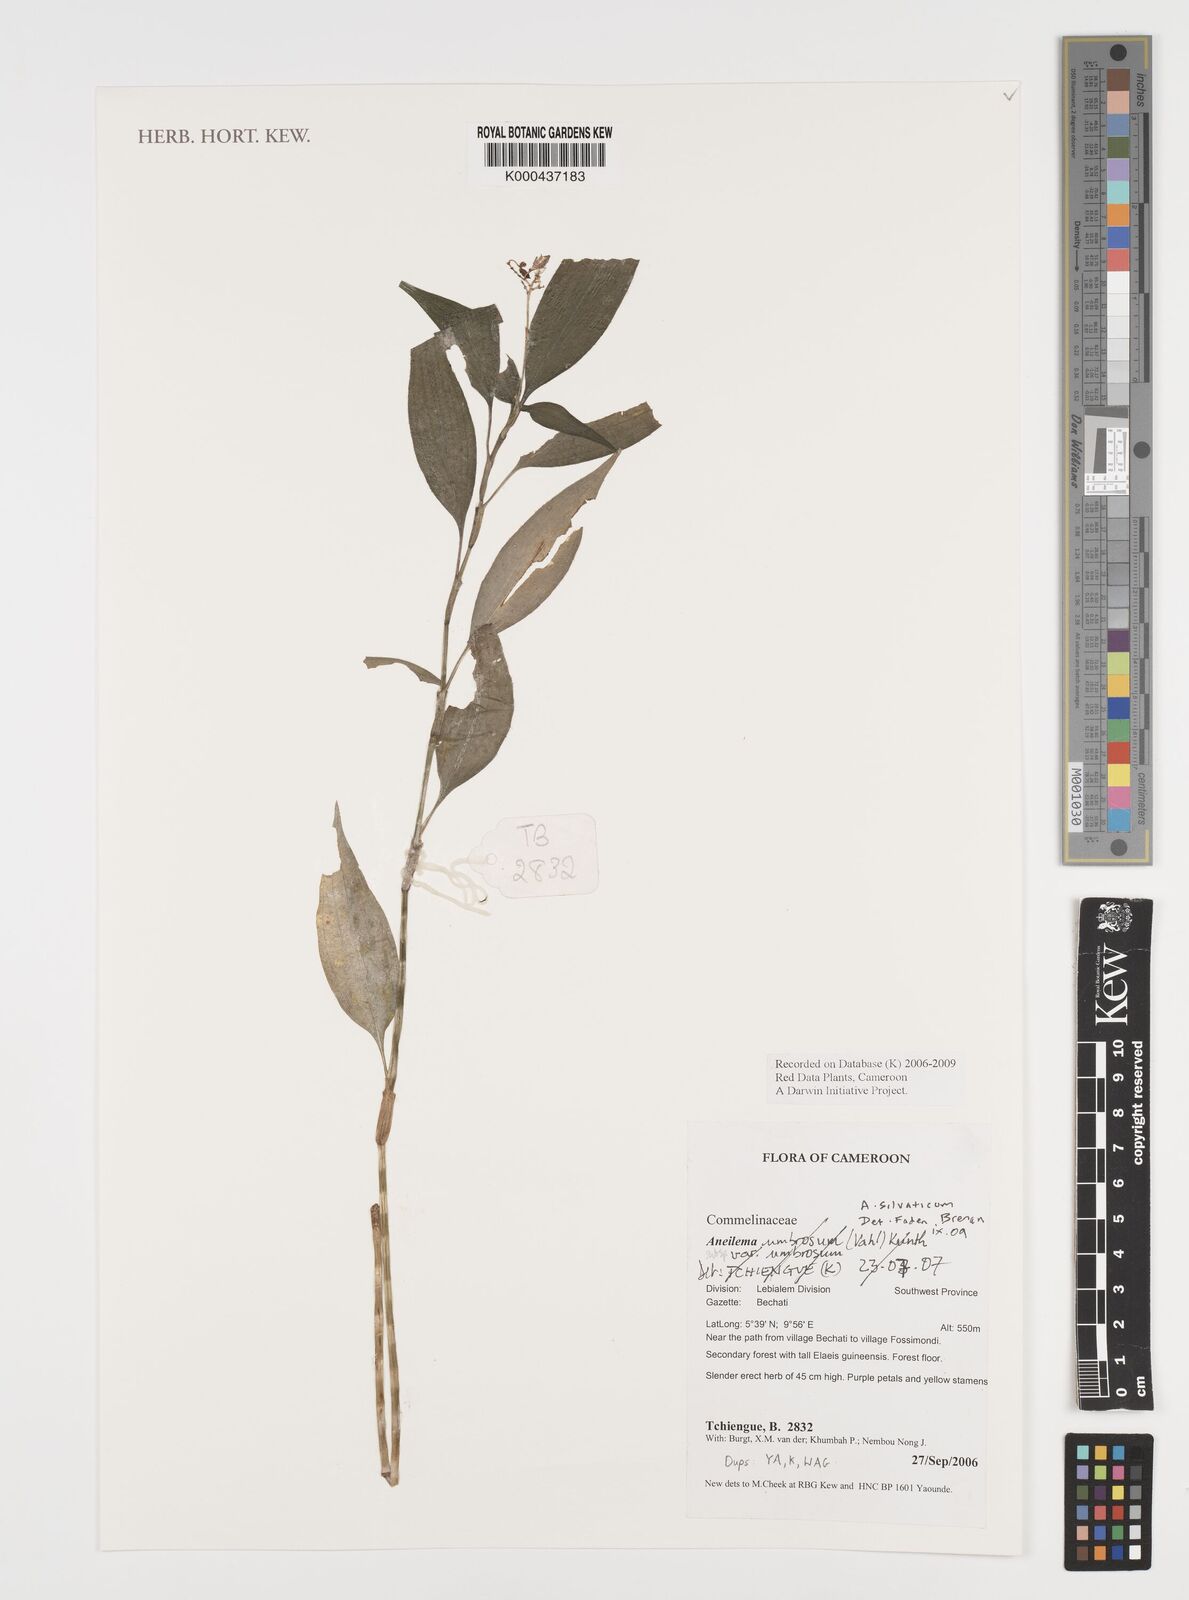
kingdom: Plantae
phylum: Tracheophyta
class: Liliopsida
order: Commelinales
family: Commelinaceae
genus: Aneilema
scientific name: Aneilema silvaticum
